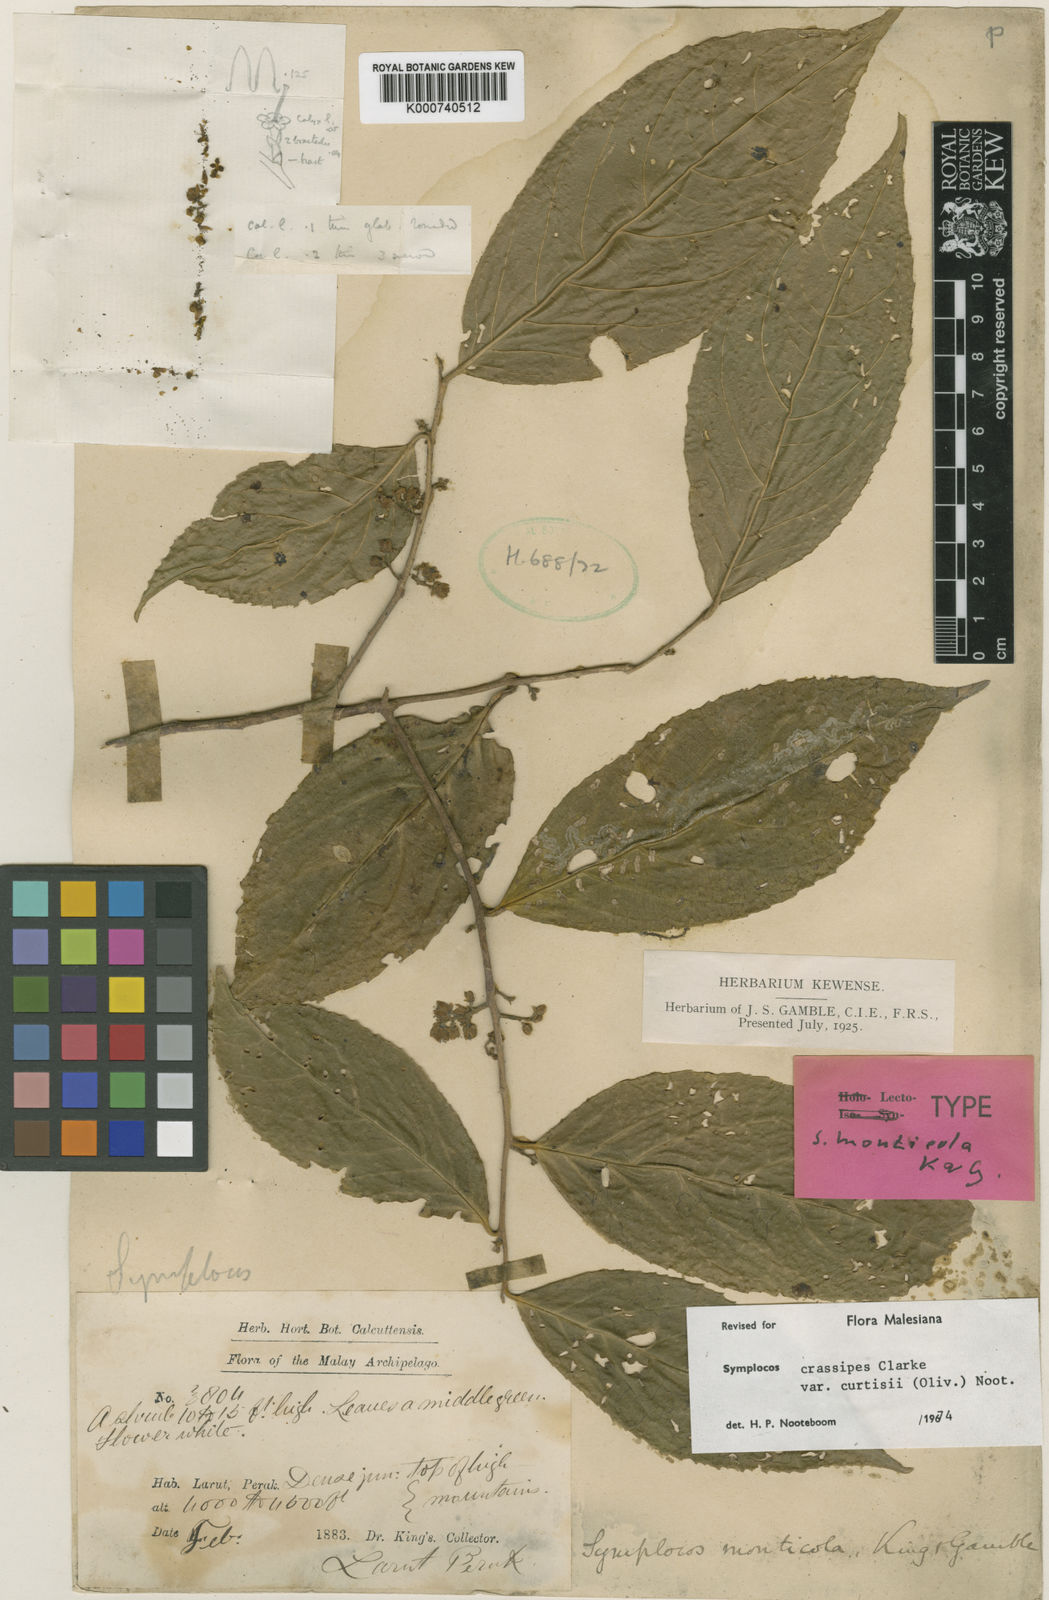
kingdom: Plantae
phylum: Tracheophyta
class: Magnoliopsida
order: Ericales
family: Symplocaceae
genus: Symplocos
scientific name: Symplocos crassipes
